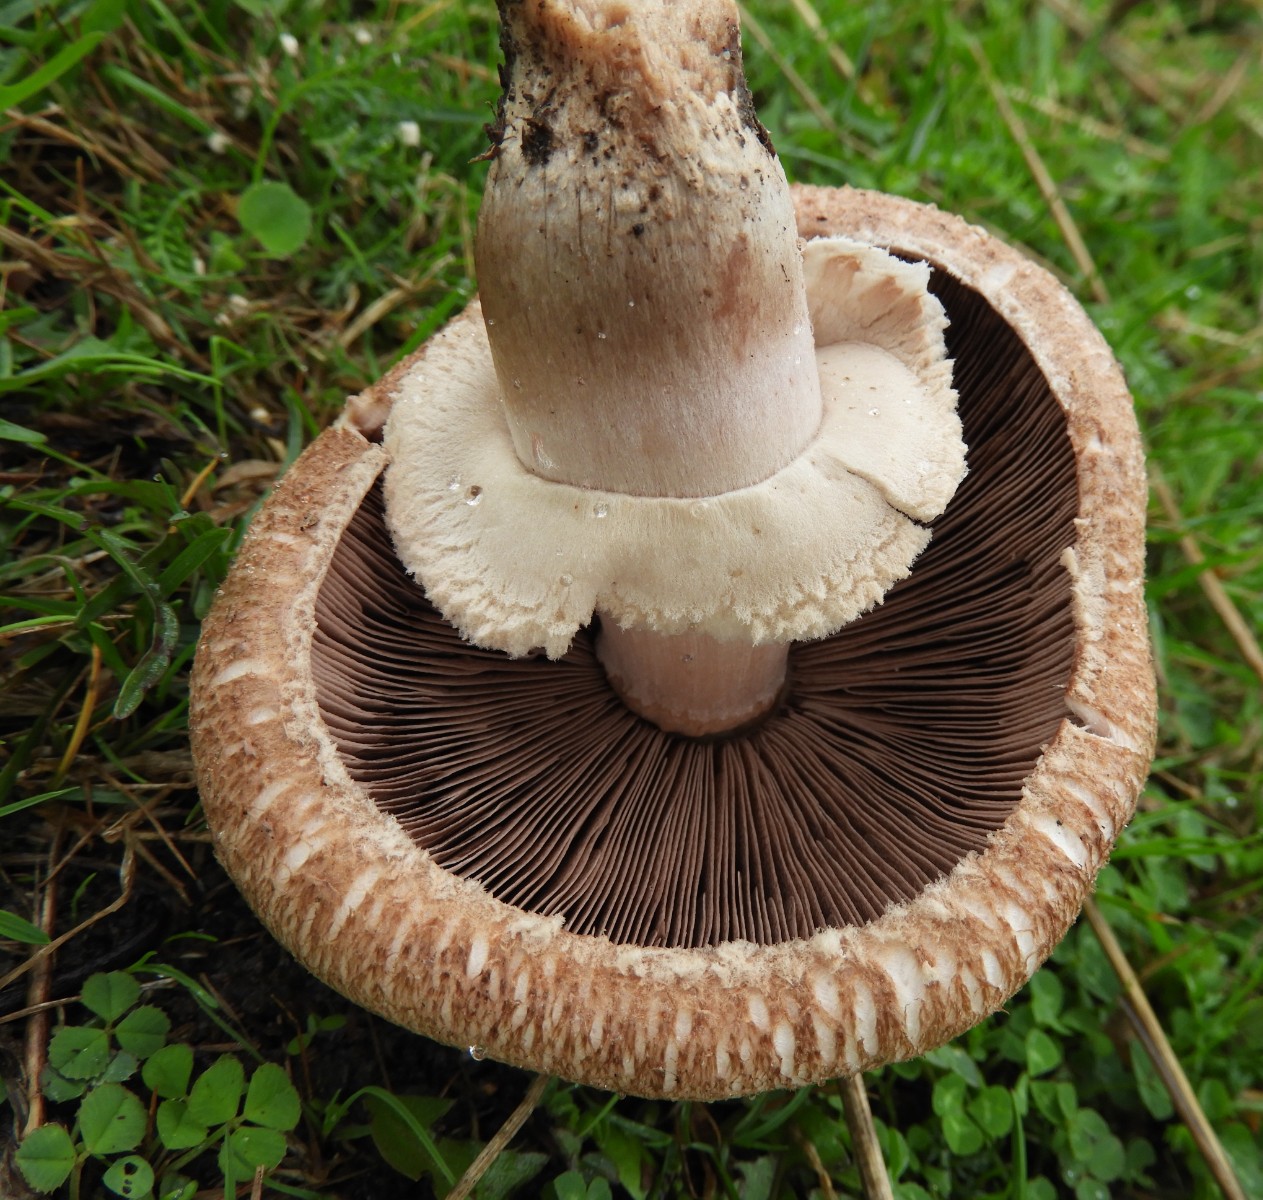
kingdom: Fungi
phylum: Basidiomycota
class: Agaricomycetes
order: Agaricales
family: Agaricaceae
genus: Agaricus
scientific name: Agaricus
